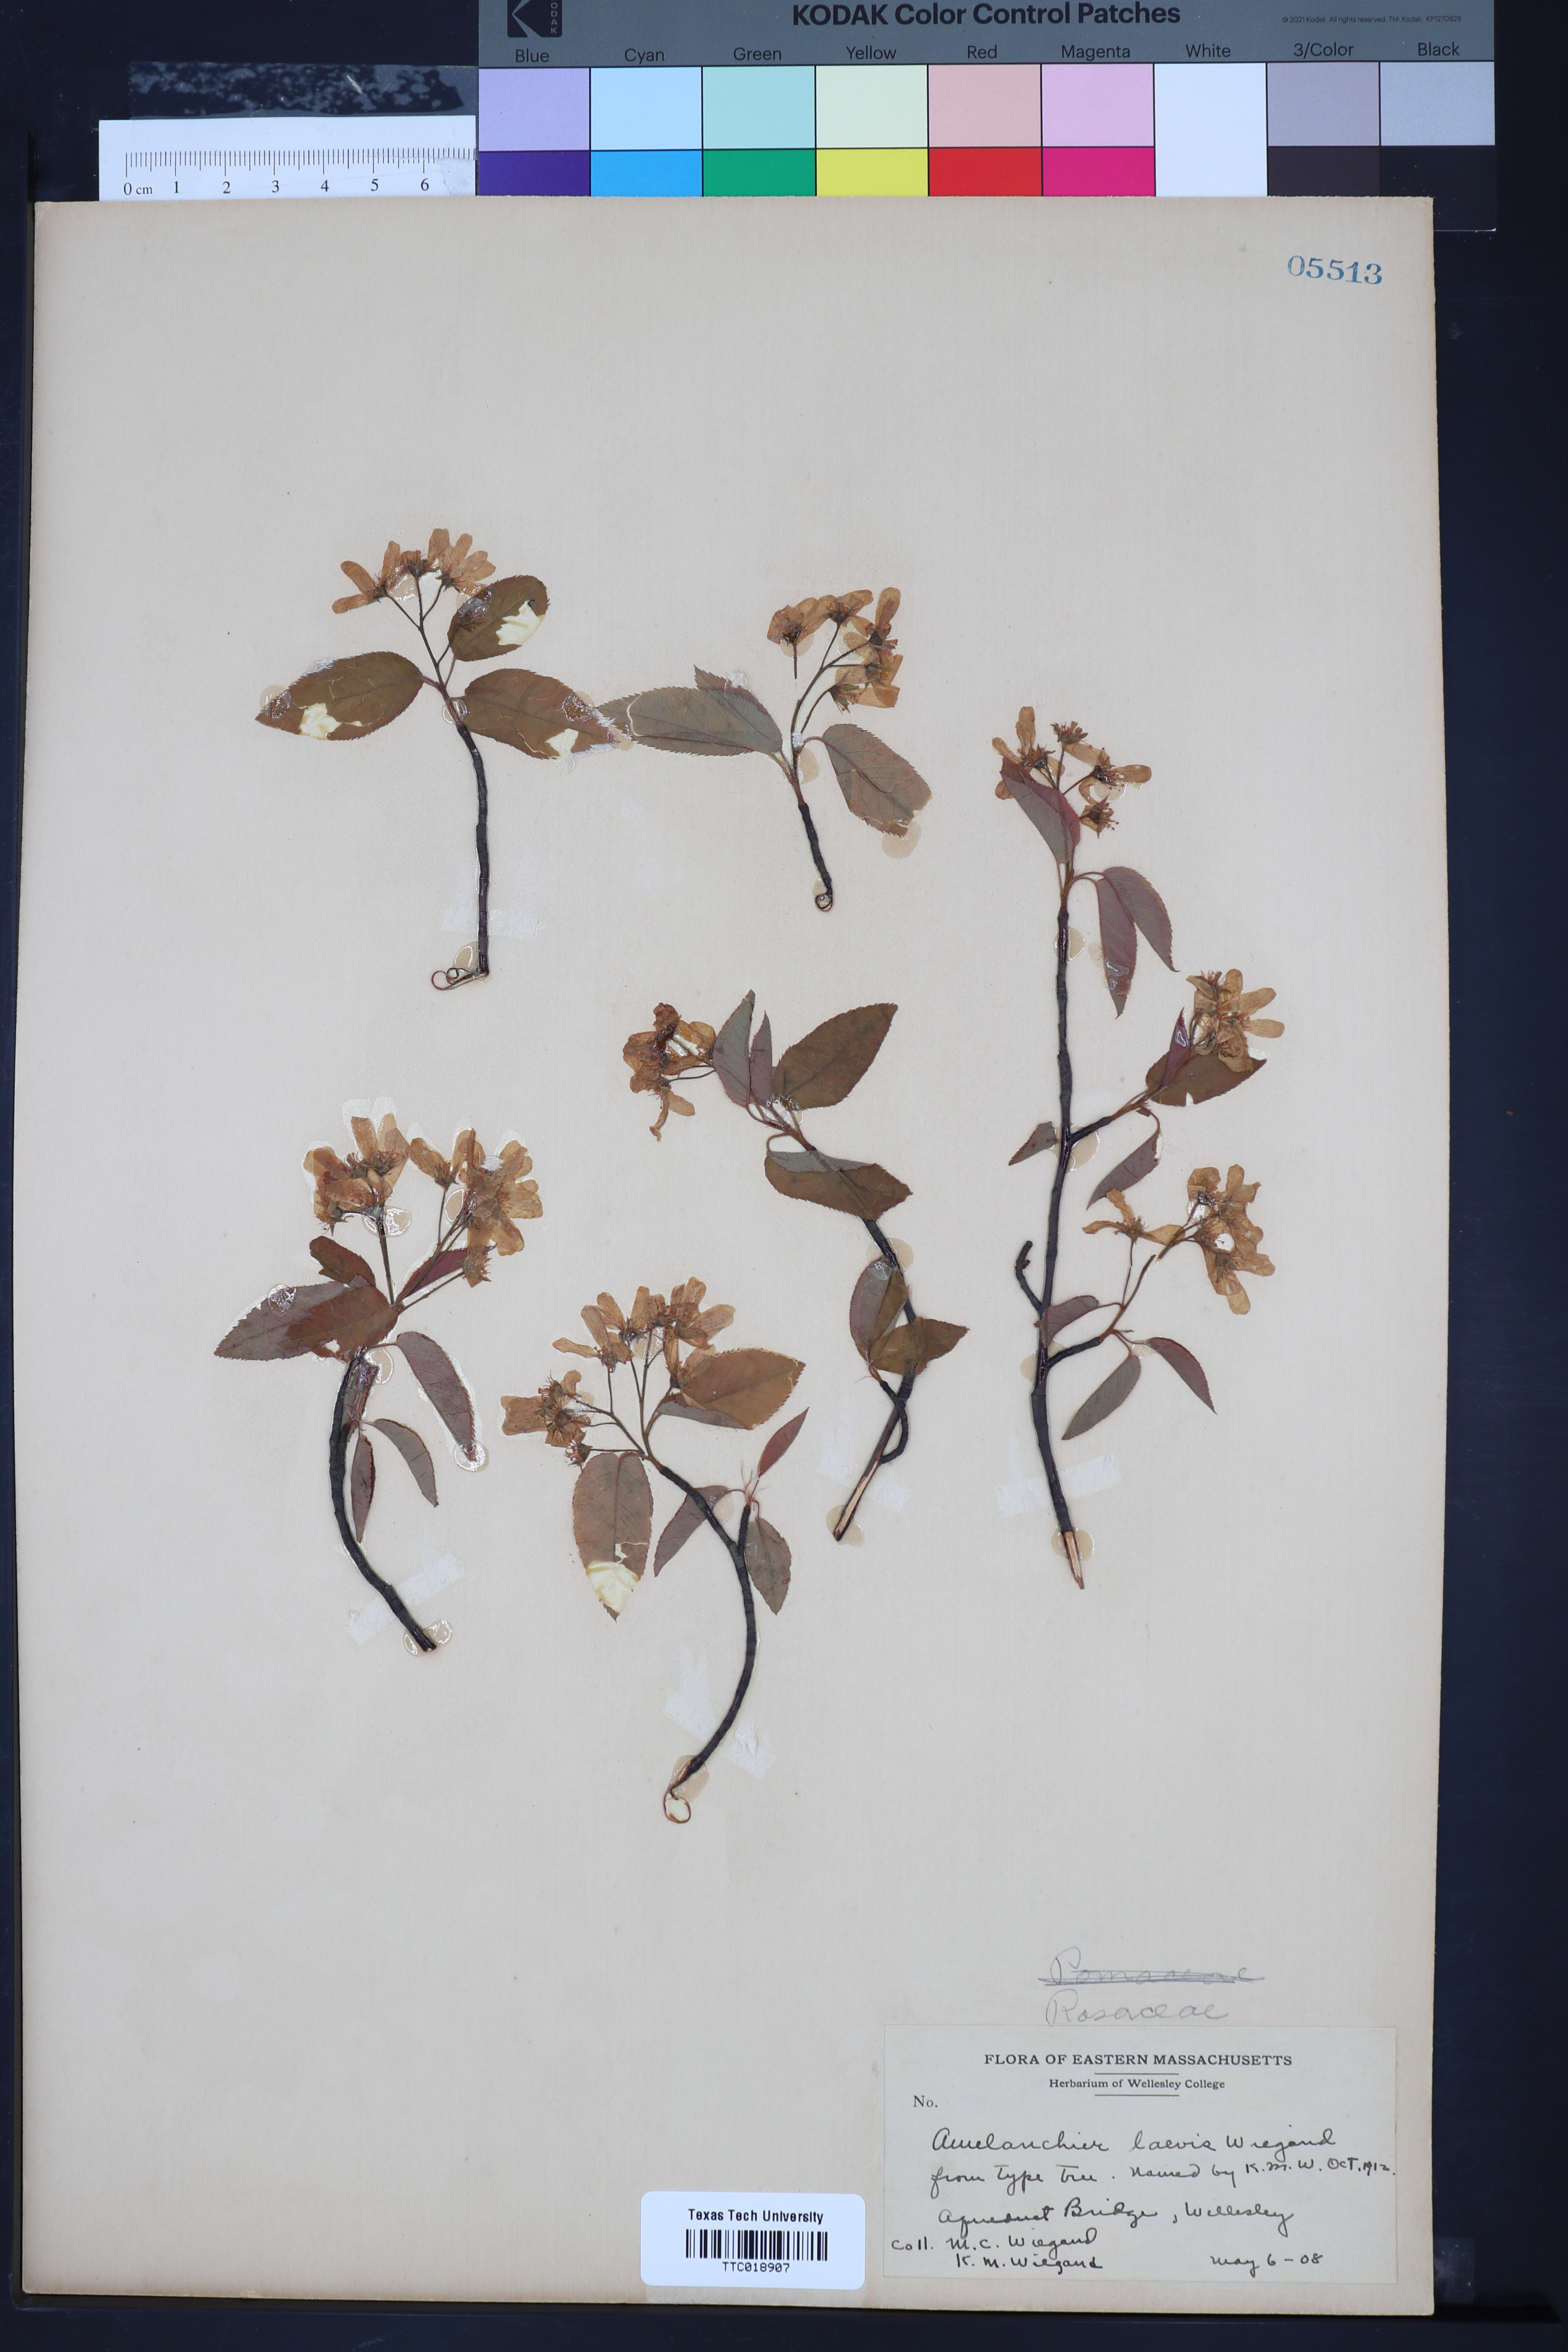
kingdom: Plantae
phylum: Tracheophyta
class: Magnoliopsida
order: Rosales
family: Rosaceae
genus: Amelanchier
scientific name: Amelanchier laevis
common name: Allegheny serviceberry
